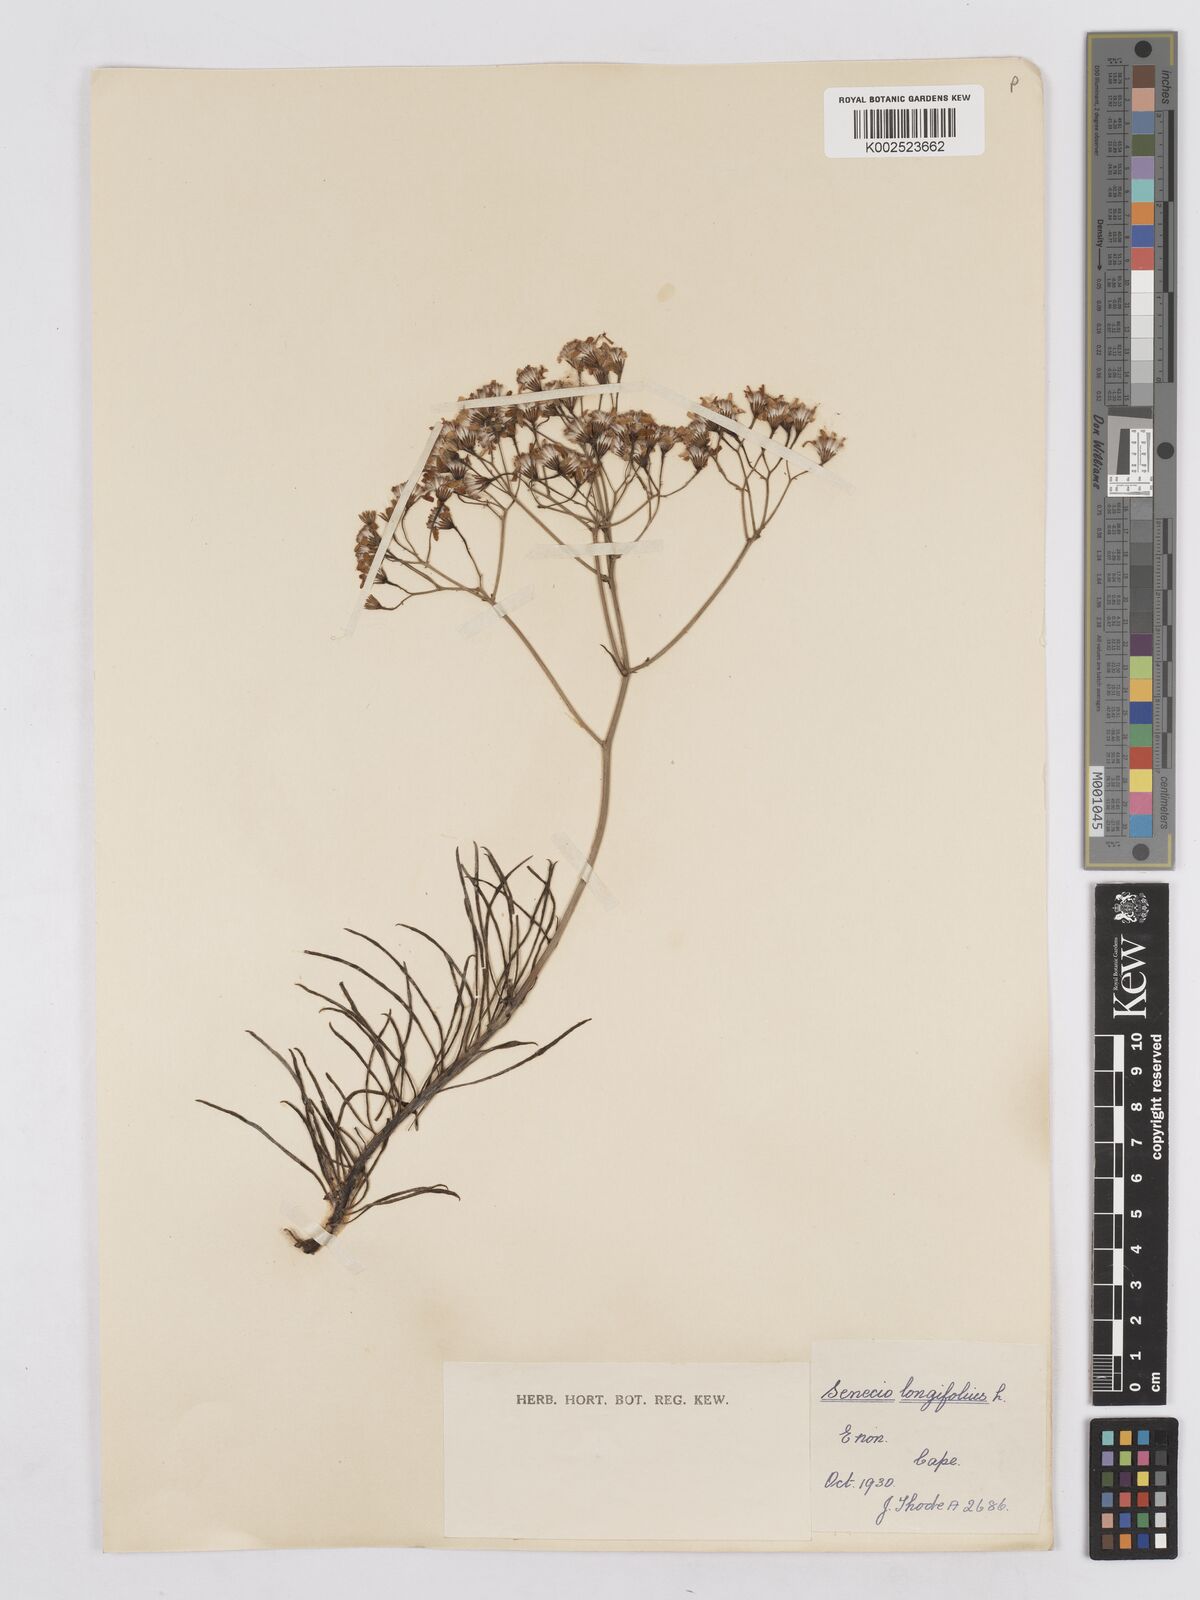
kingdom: Plantae
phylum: Tracheophyta
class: Magnoliopsida
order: Asterales
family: Asteraceae
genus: Senecio
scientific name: Senecio linifolius
